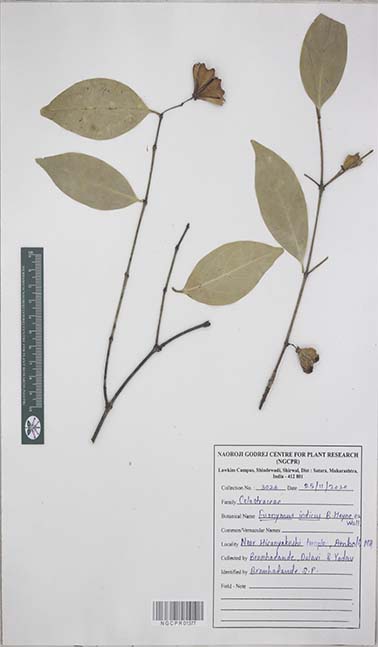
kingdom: Plantae
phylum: Tracheophyta
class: Magnoliopsida
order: Celastrales
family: Celastraceae
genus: Euonymus
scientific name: Euonymus indicus
